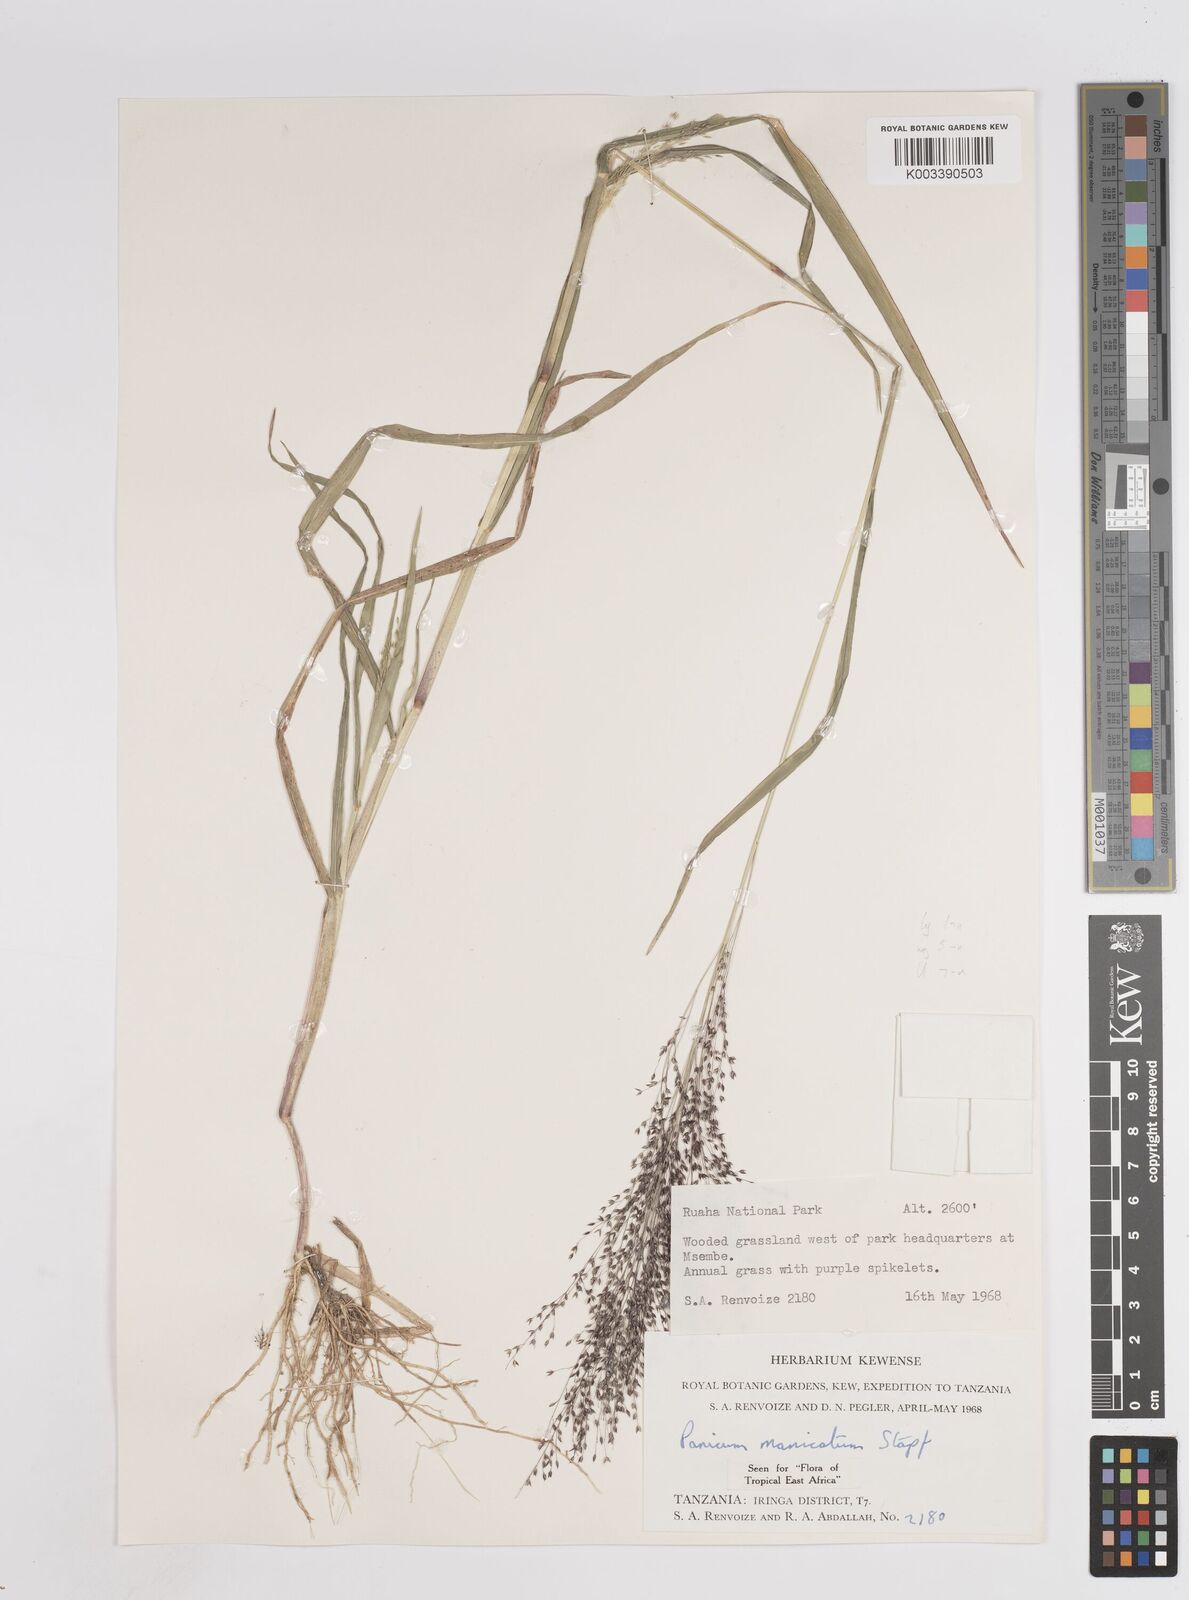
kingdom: Plantae
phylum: Tracheophyta
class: Liliopsida
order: Poales
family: Poaceae
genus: Panicum
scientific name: Panicum massaiense
